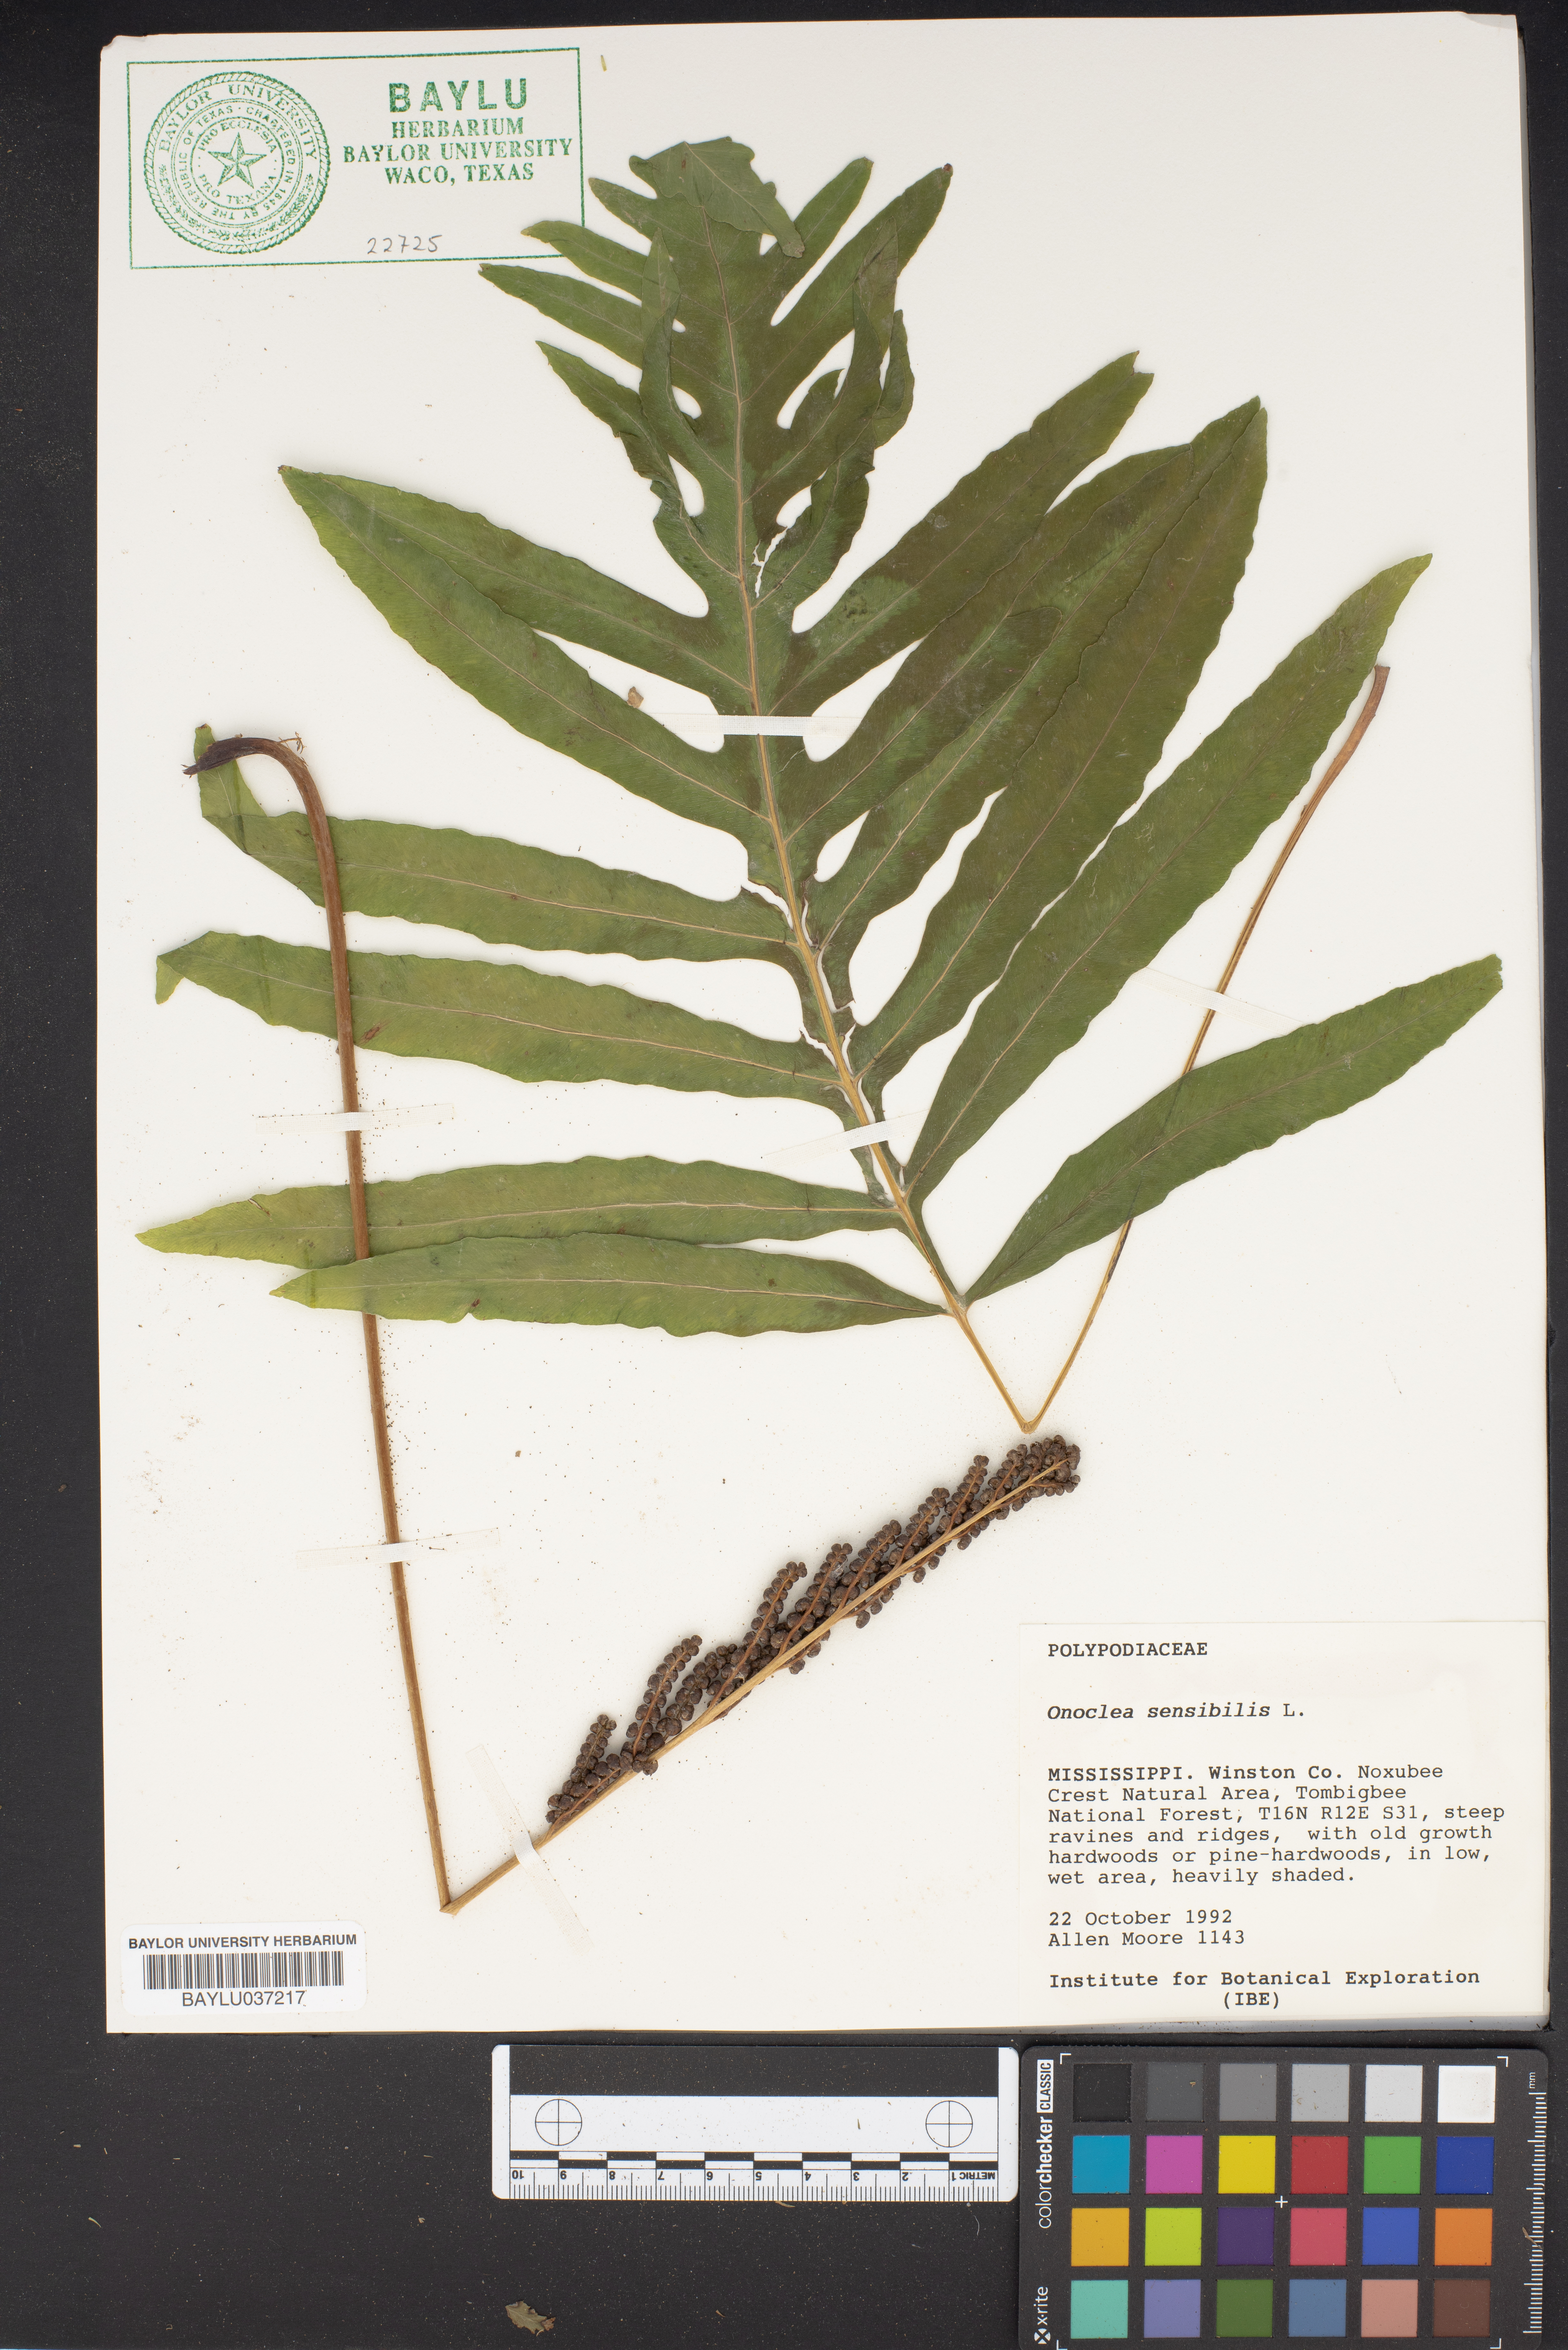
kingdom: Plantae
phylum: Tracheophyta
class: Polypodiopsida
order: Polypodiales
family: Onocleaceae
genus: Onoclea
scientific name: Onoclea sensibilis
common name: Sensitive fern
